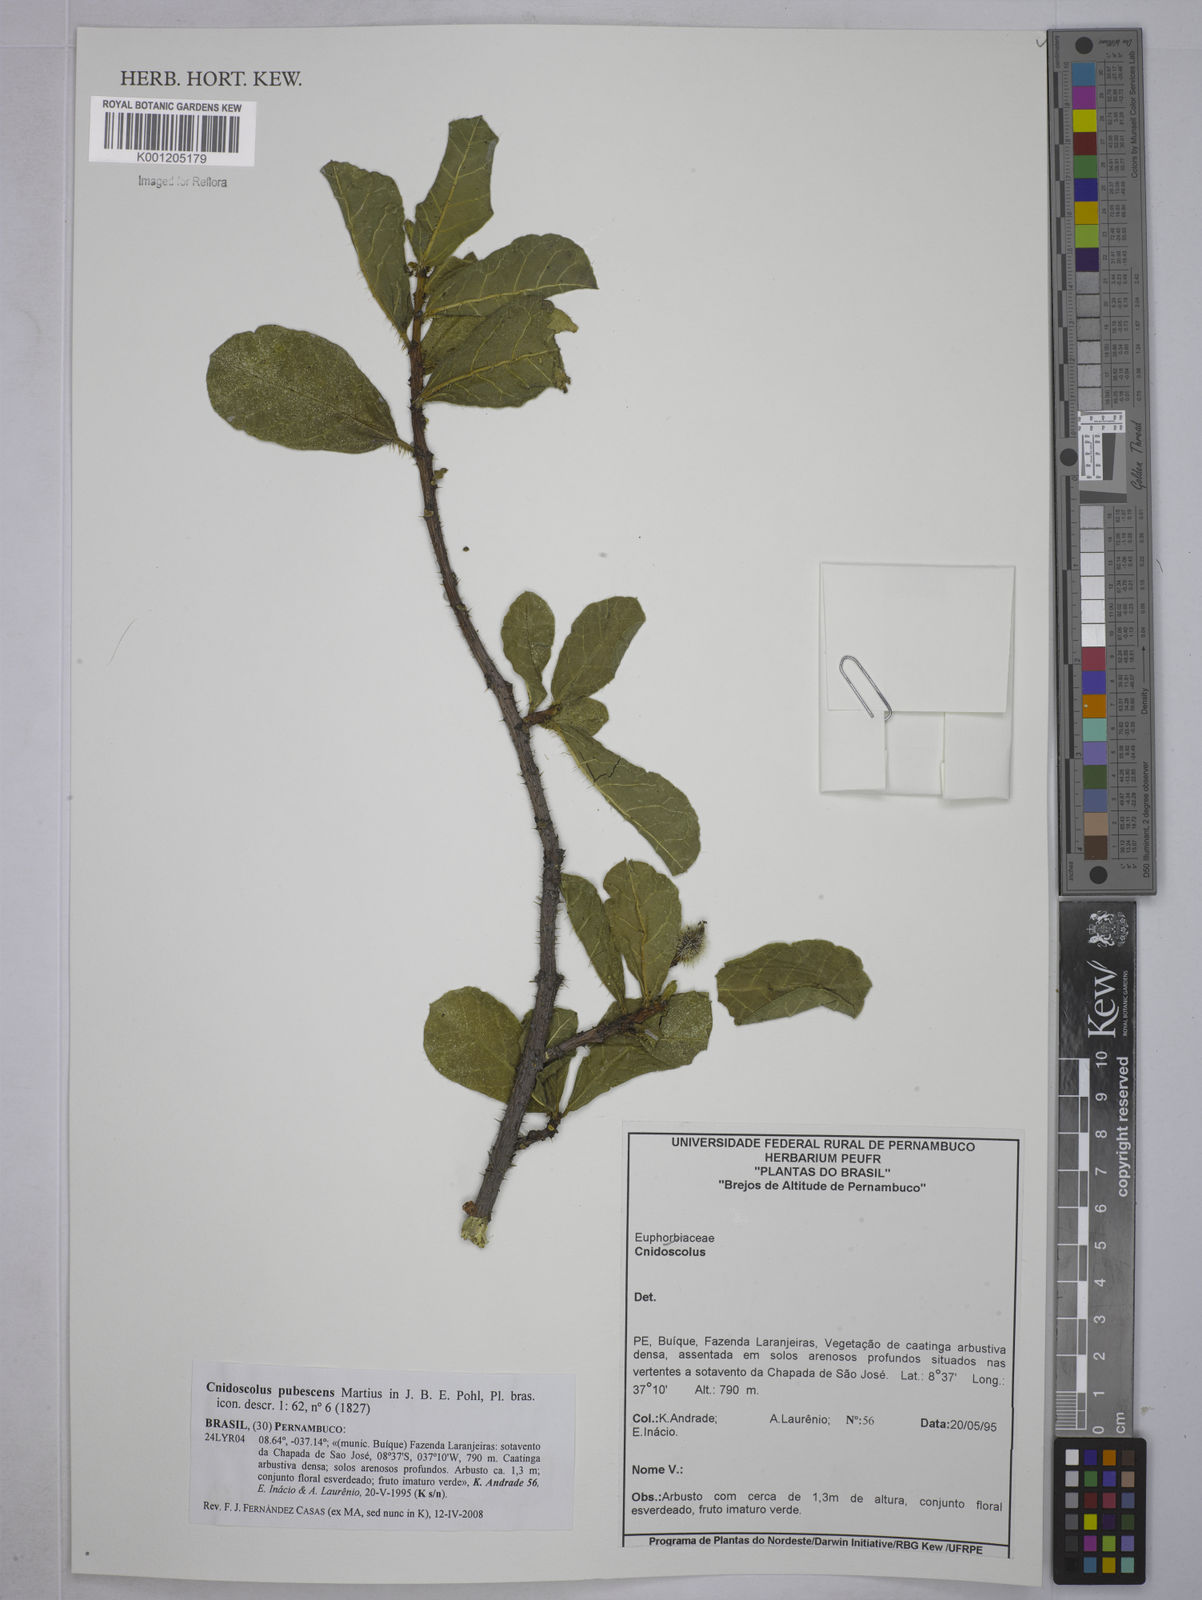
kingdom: Plantae
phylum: Tracheophyta
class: Magnoliopsida
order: Malpighiales
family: Euphorbiaceae
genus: Cnidoscolus
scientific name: Cnidoscolus pubescens
